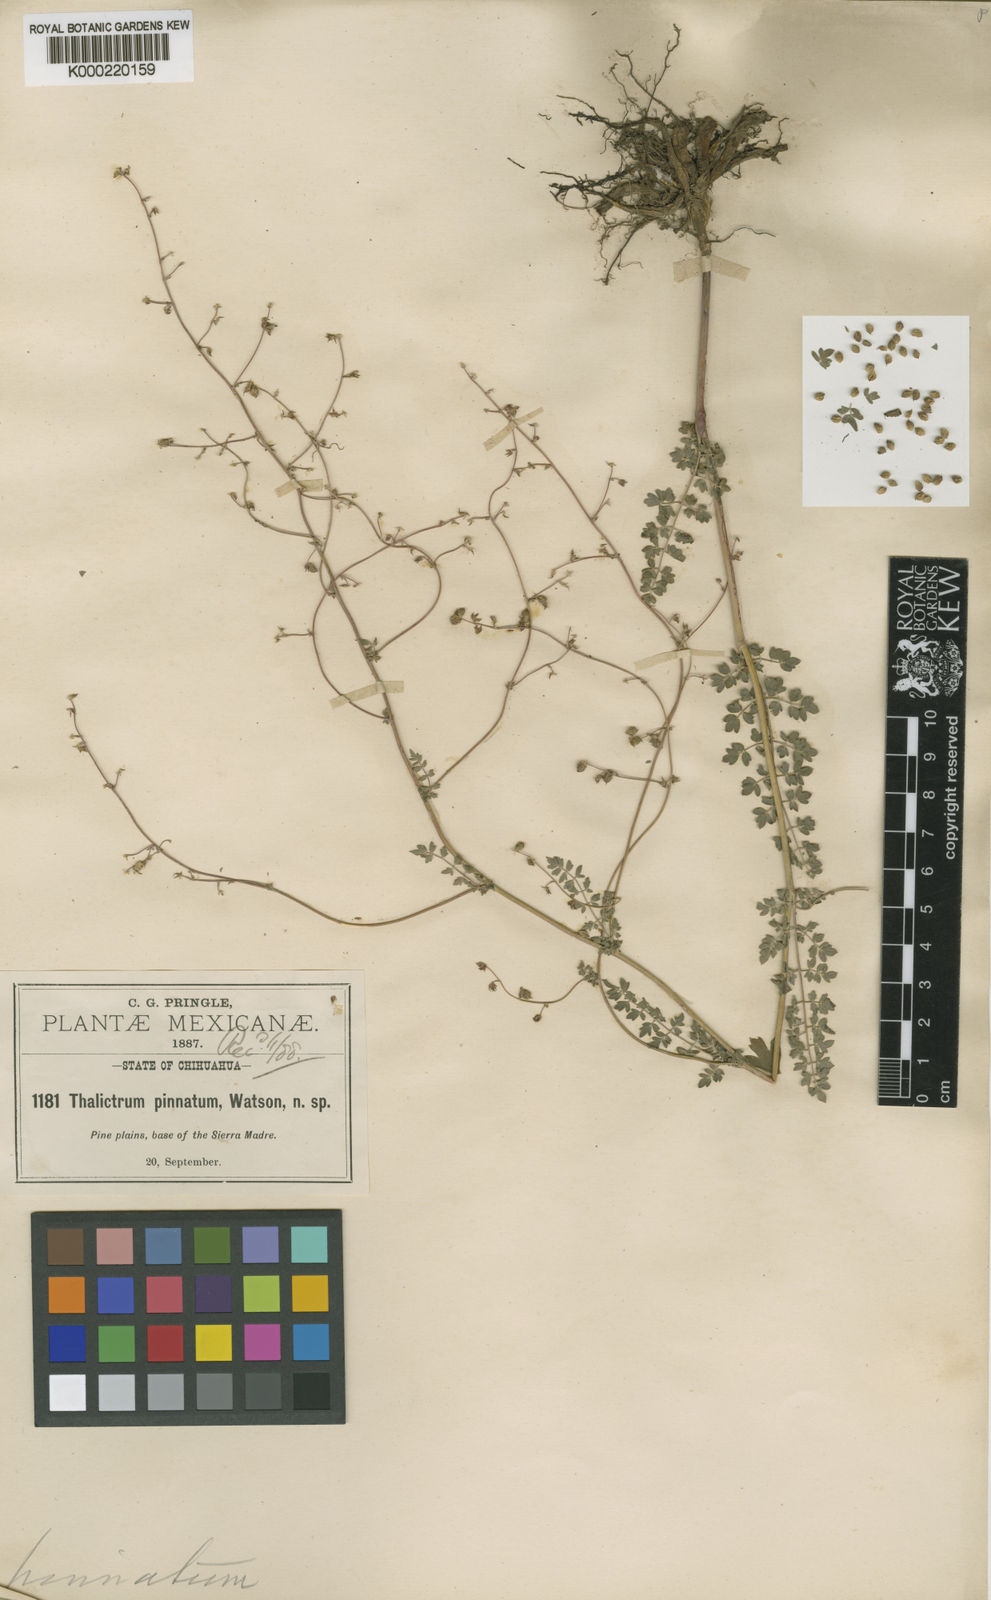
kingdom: Plantae
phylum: Tracheophyta
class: Magnoliopsida
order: Ranunculales
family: Ranunculaceae
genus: Thalictrum
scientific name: Thalictrum pinnatum
